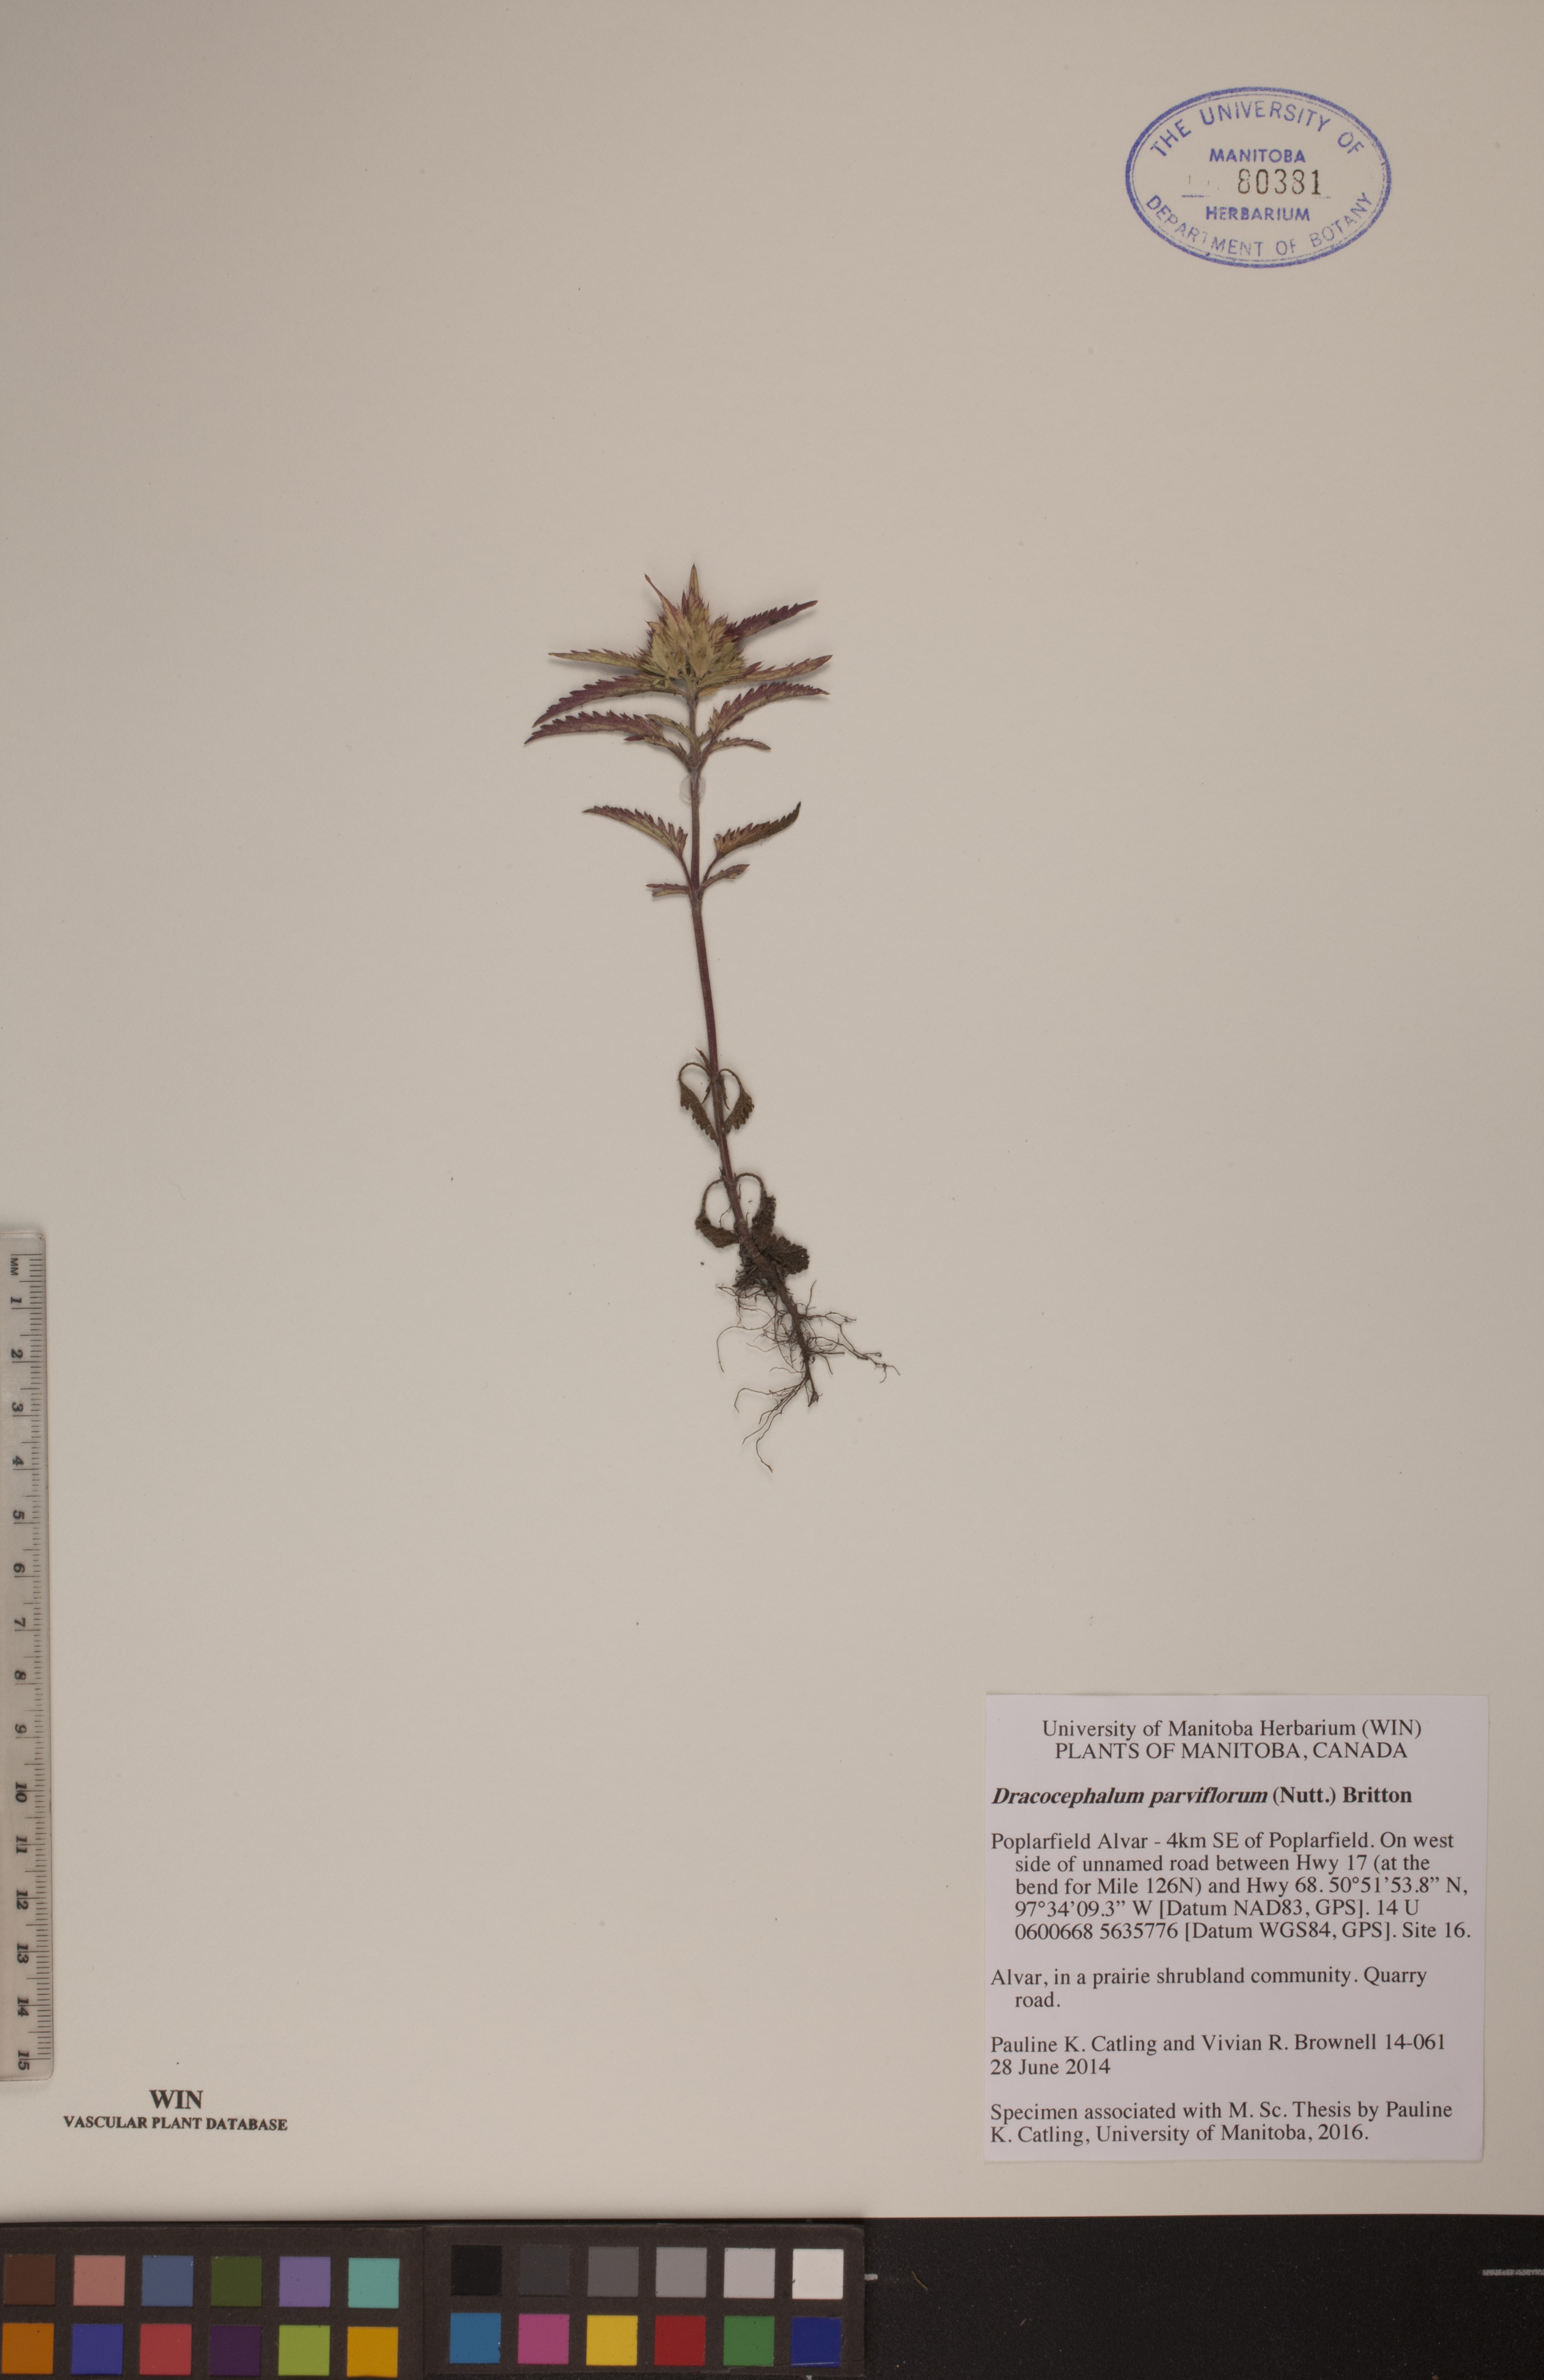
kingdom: Plantae
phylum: Tracheophyta
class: Magnoliopsida
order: Lamiales
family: Lamiaceae
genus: Dracocephalum
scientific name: Dracocephalum parviflorum
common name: American dragonhead
